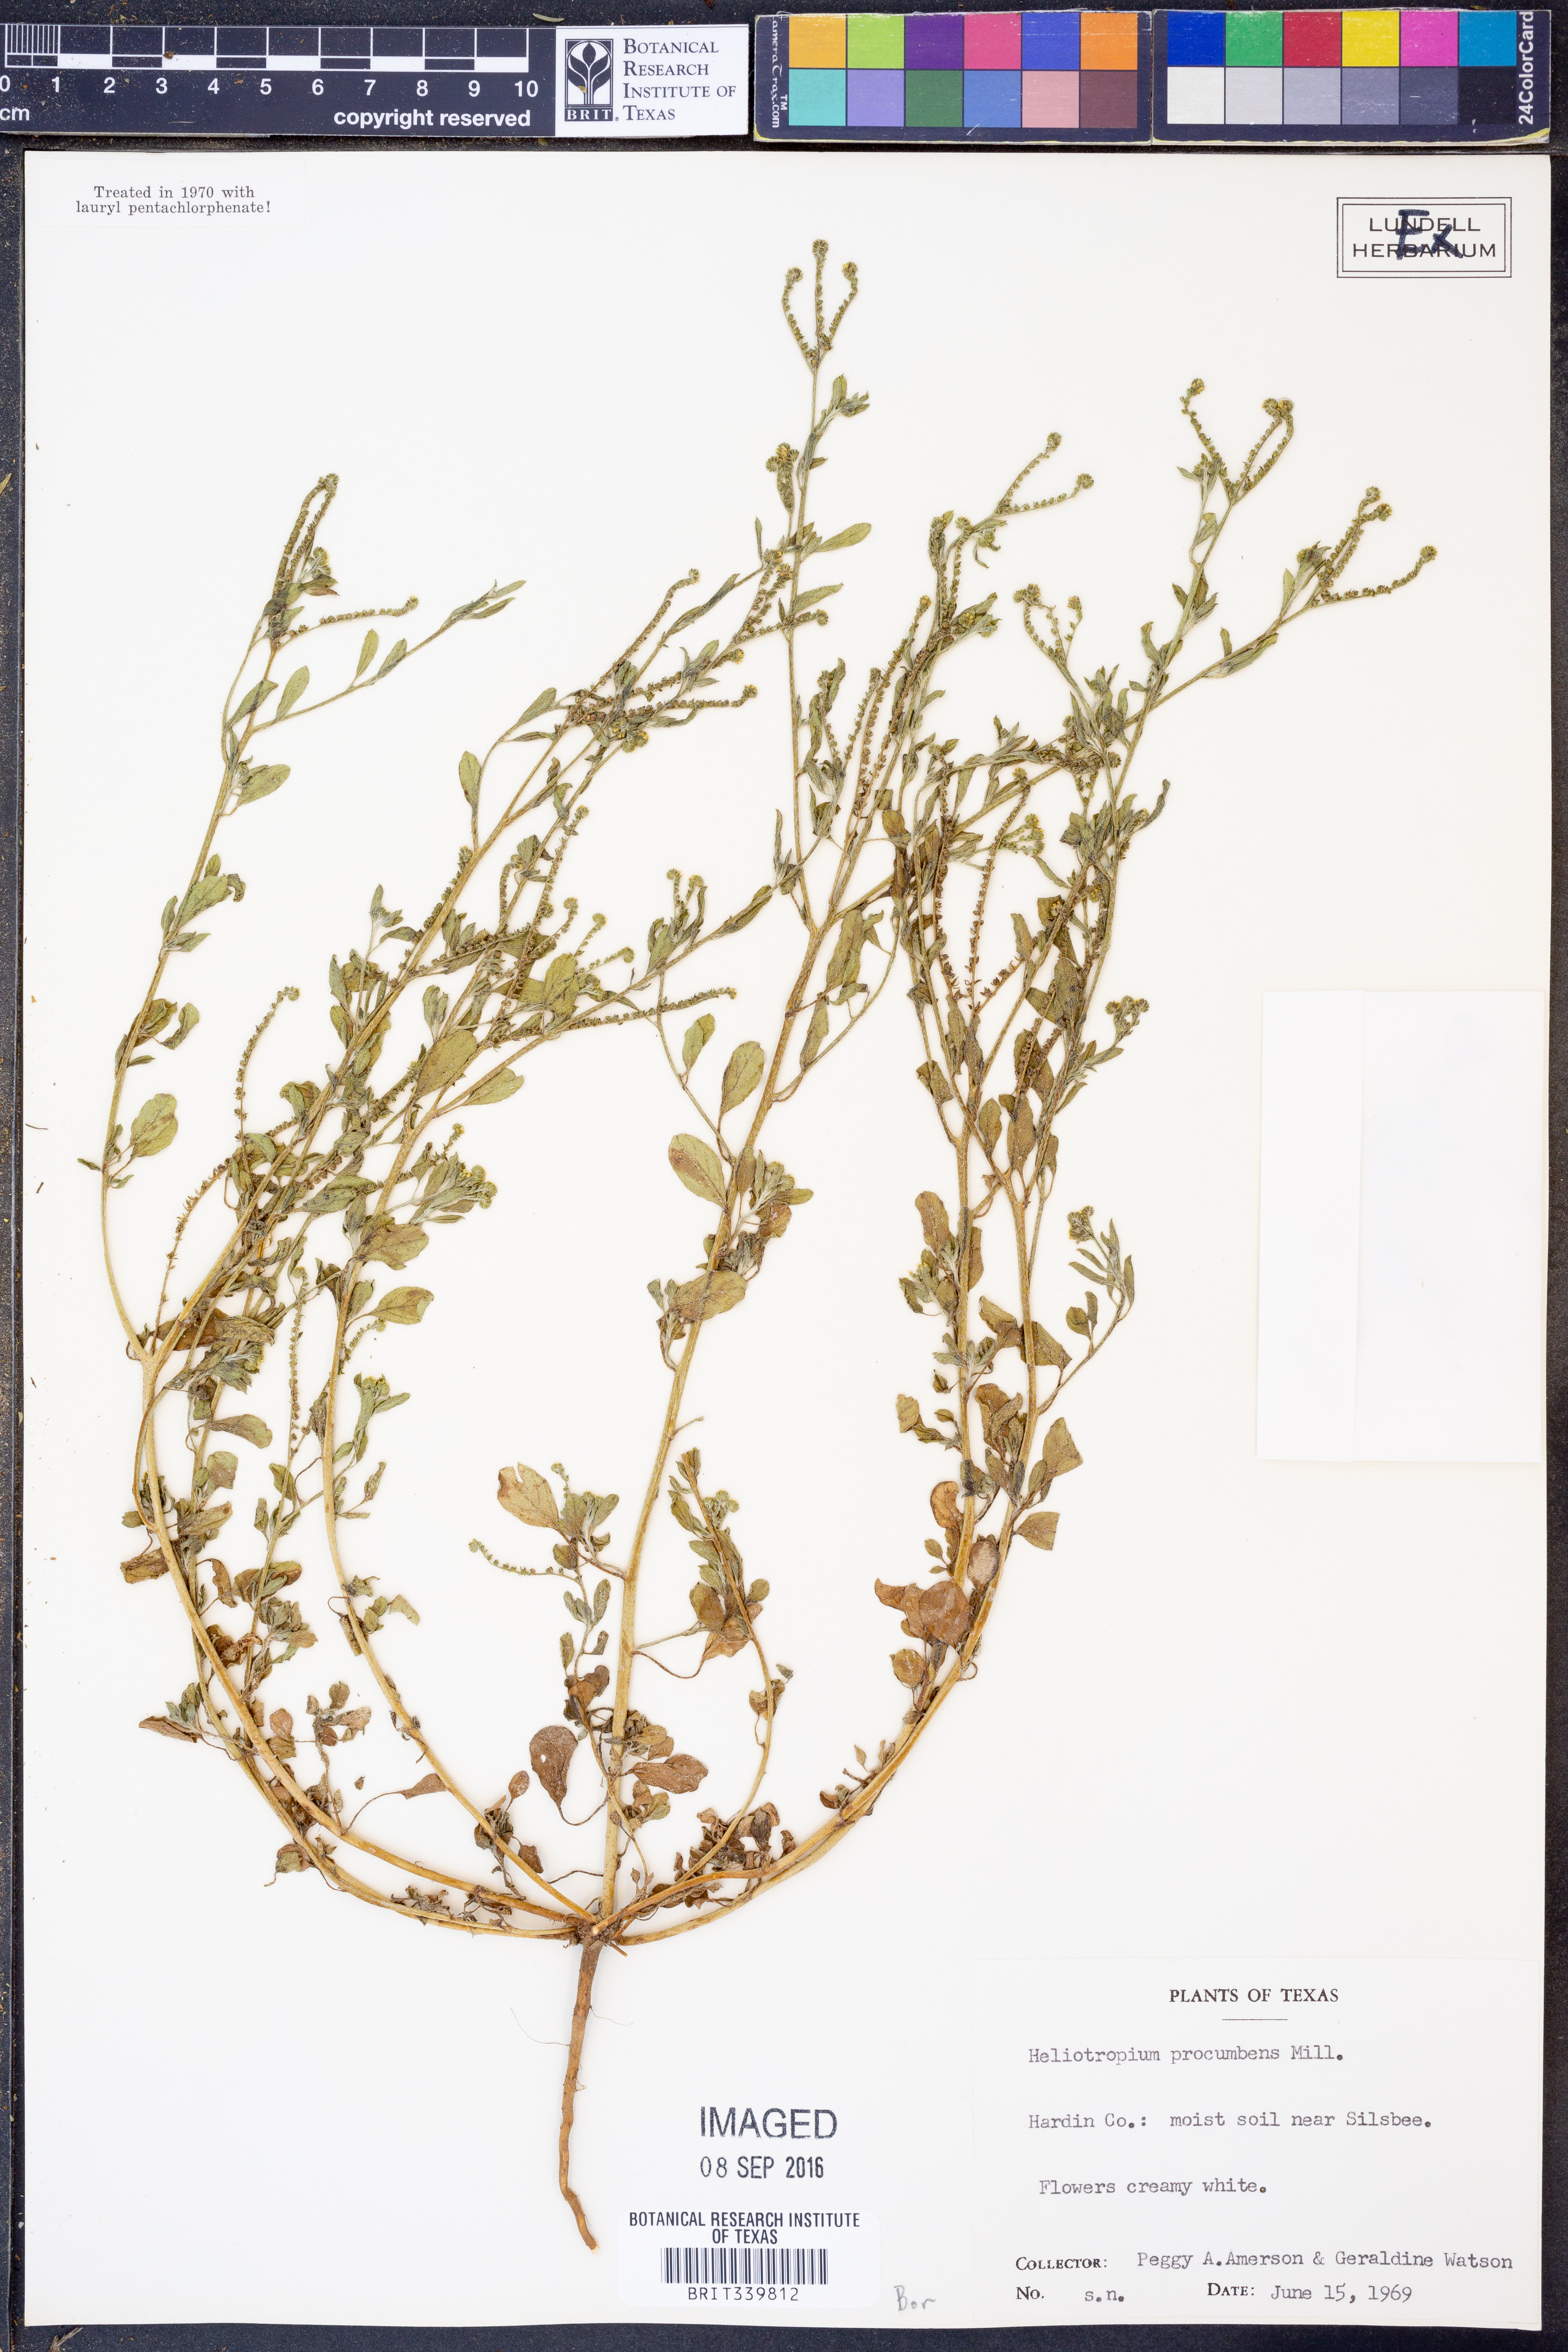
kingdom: Plantae
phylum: Tracheophyta
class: Magnoliopsida
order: Boraginales
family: Heliotropiaceae
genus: Euploca
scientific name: Euploca procumbens
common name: Fourspike heliotrope
